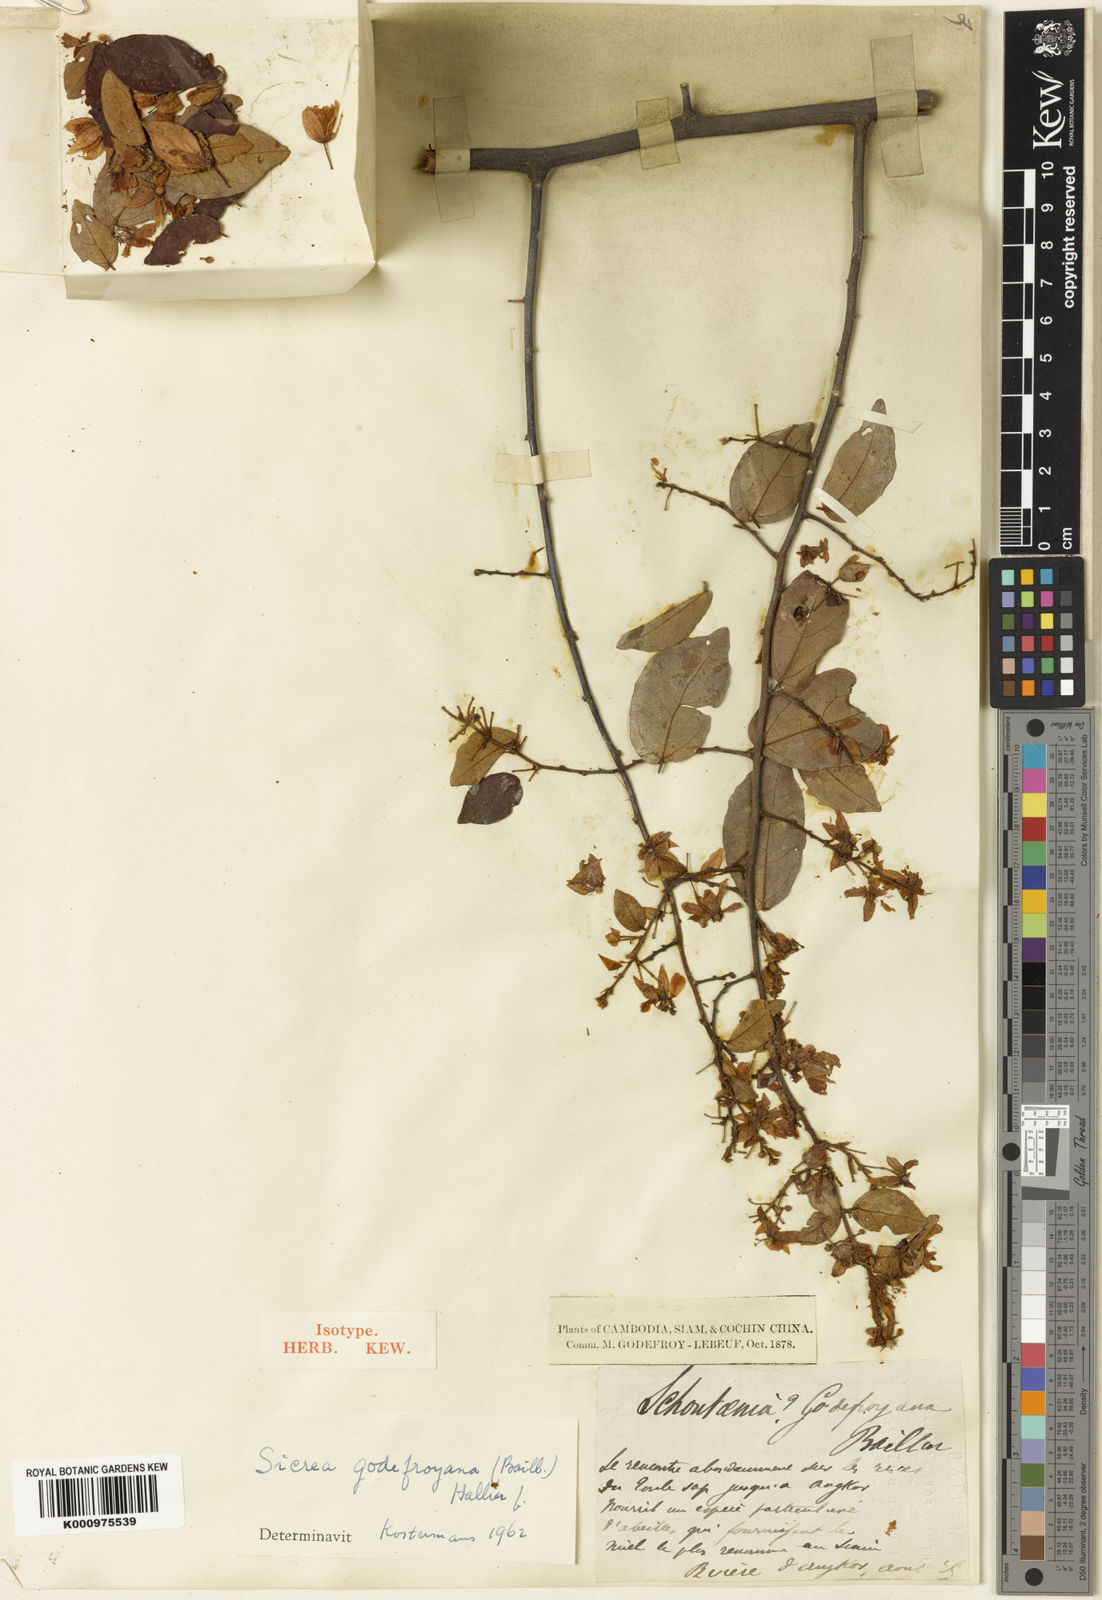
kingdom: Plantae
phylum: Tracheophyta
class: Magnoliopsida
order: Malvales
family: Malvaceae
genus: Schoutenia
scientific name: Schoutenia godefroyana
